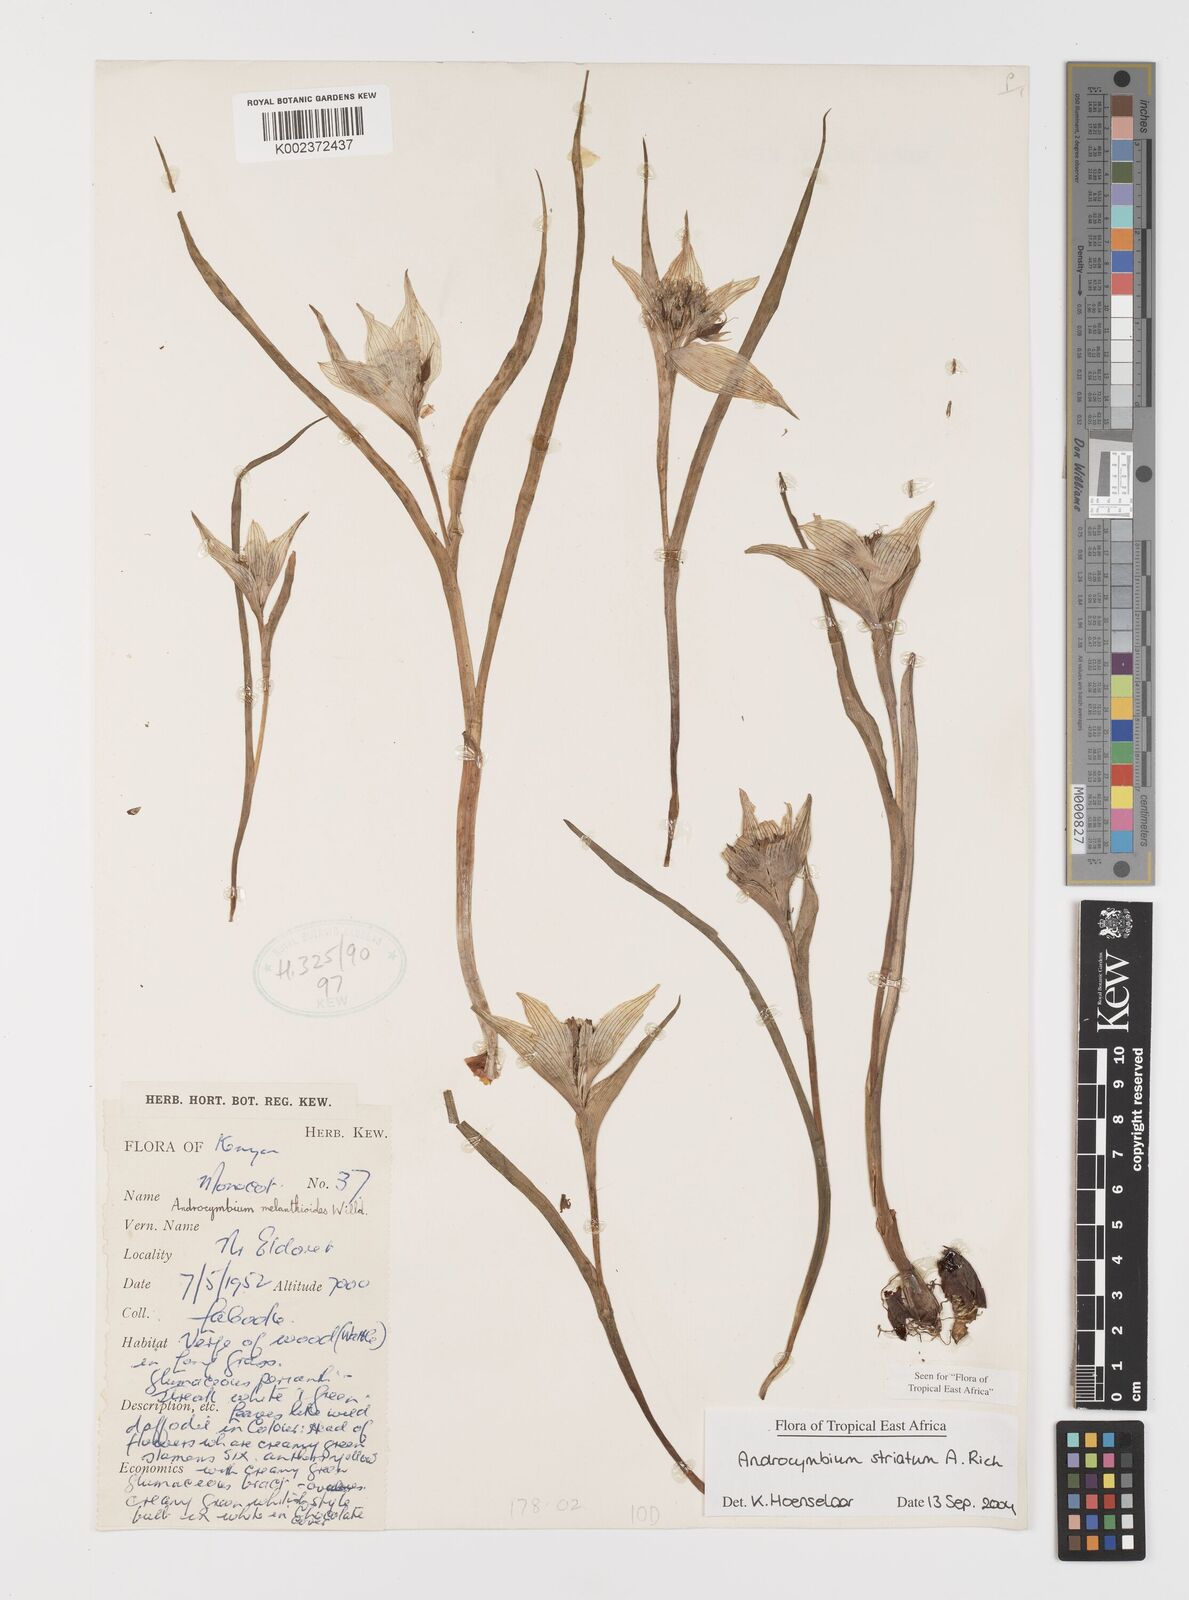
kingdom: Plantae
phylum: Tracheophyta
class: Liliopsida
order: Liliales
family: Colchicaceae
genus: Colchicum
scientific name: Colchicum striatum
